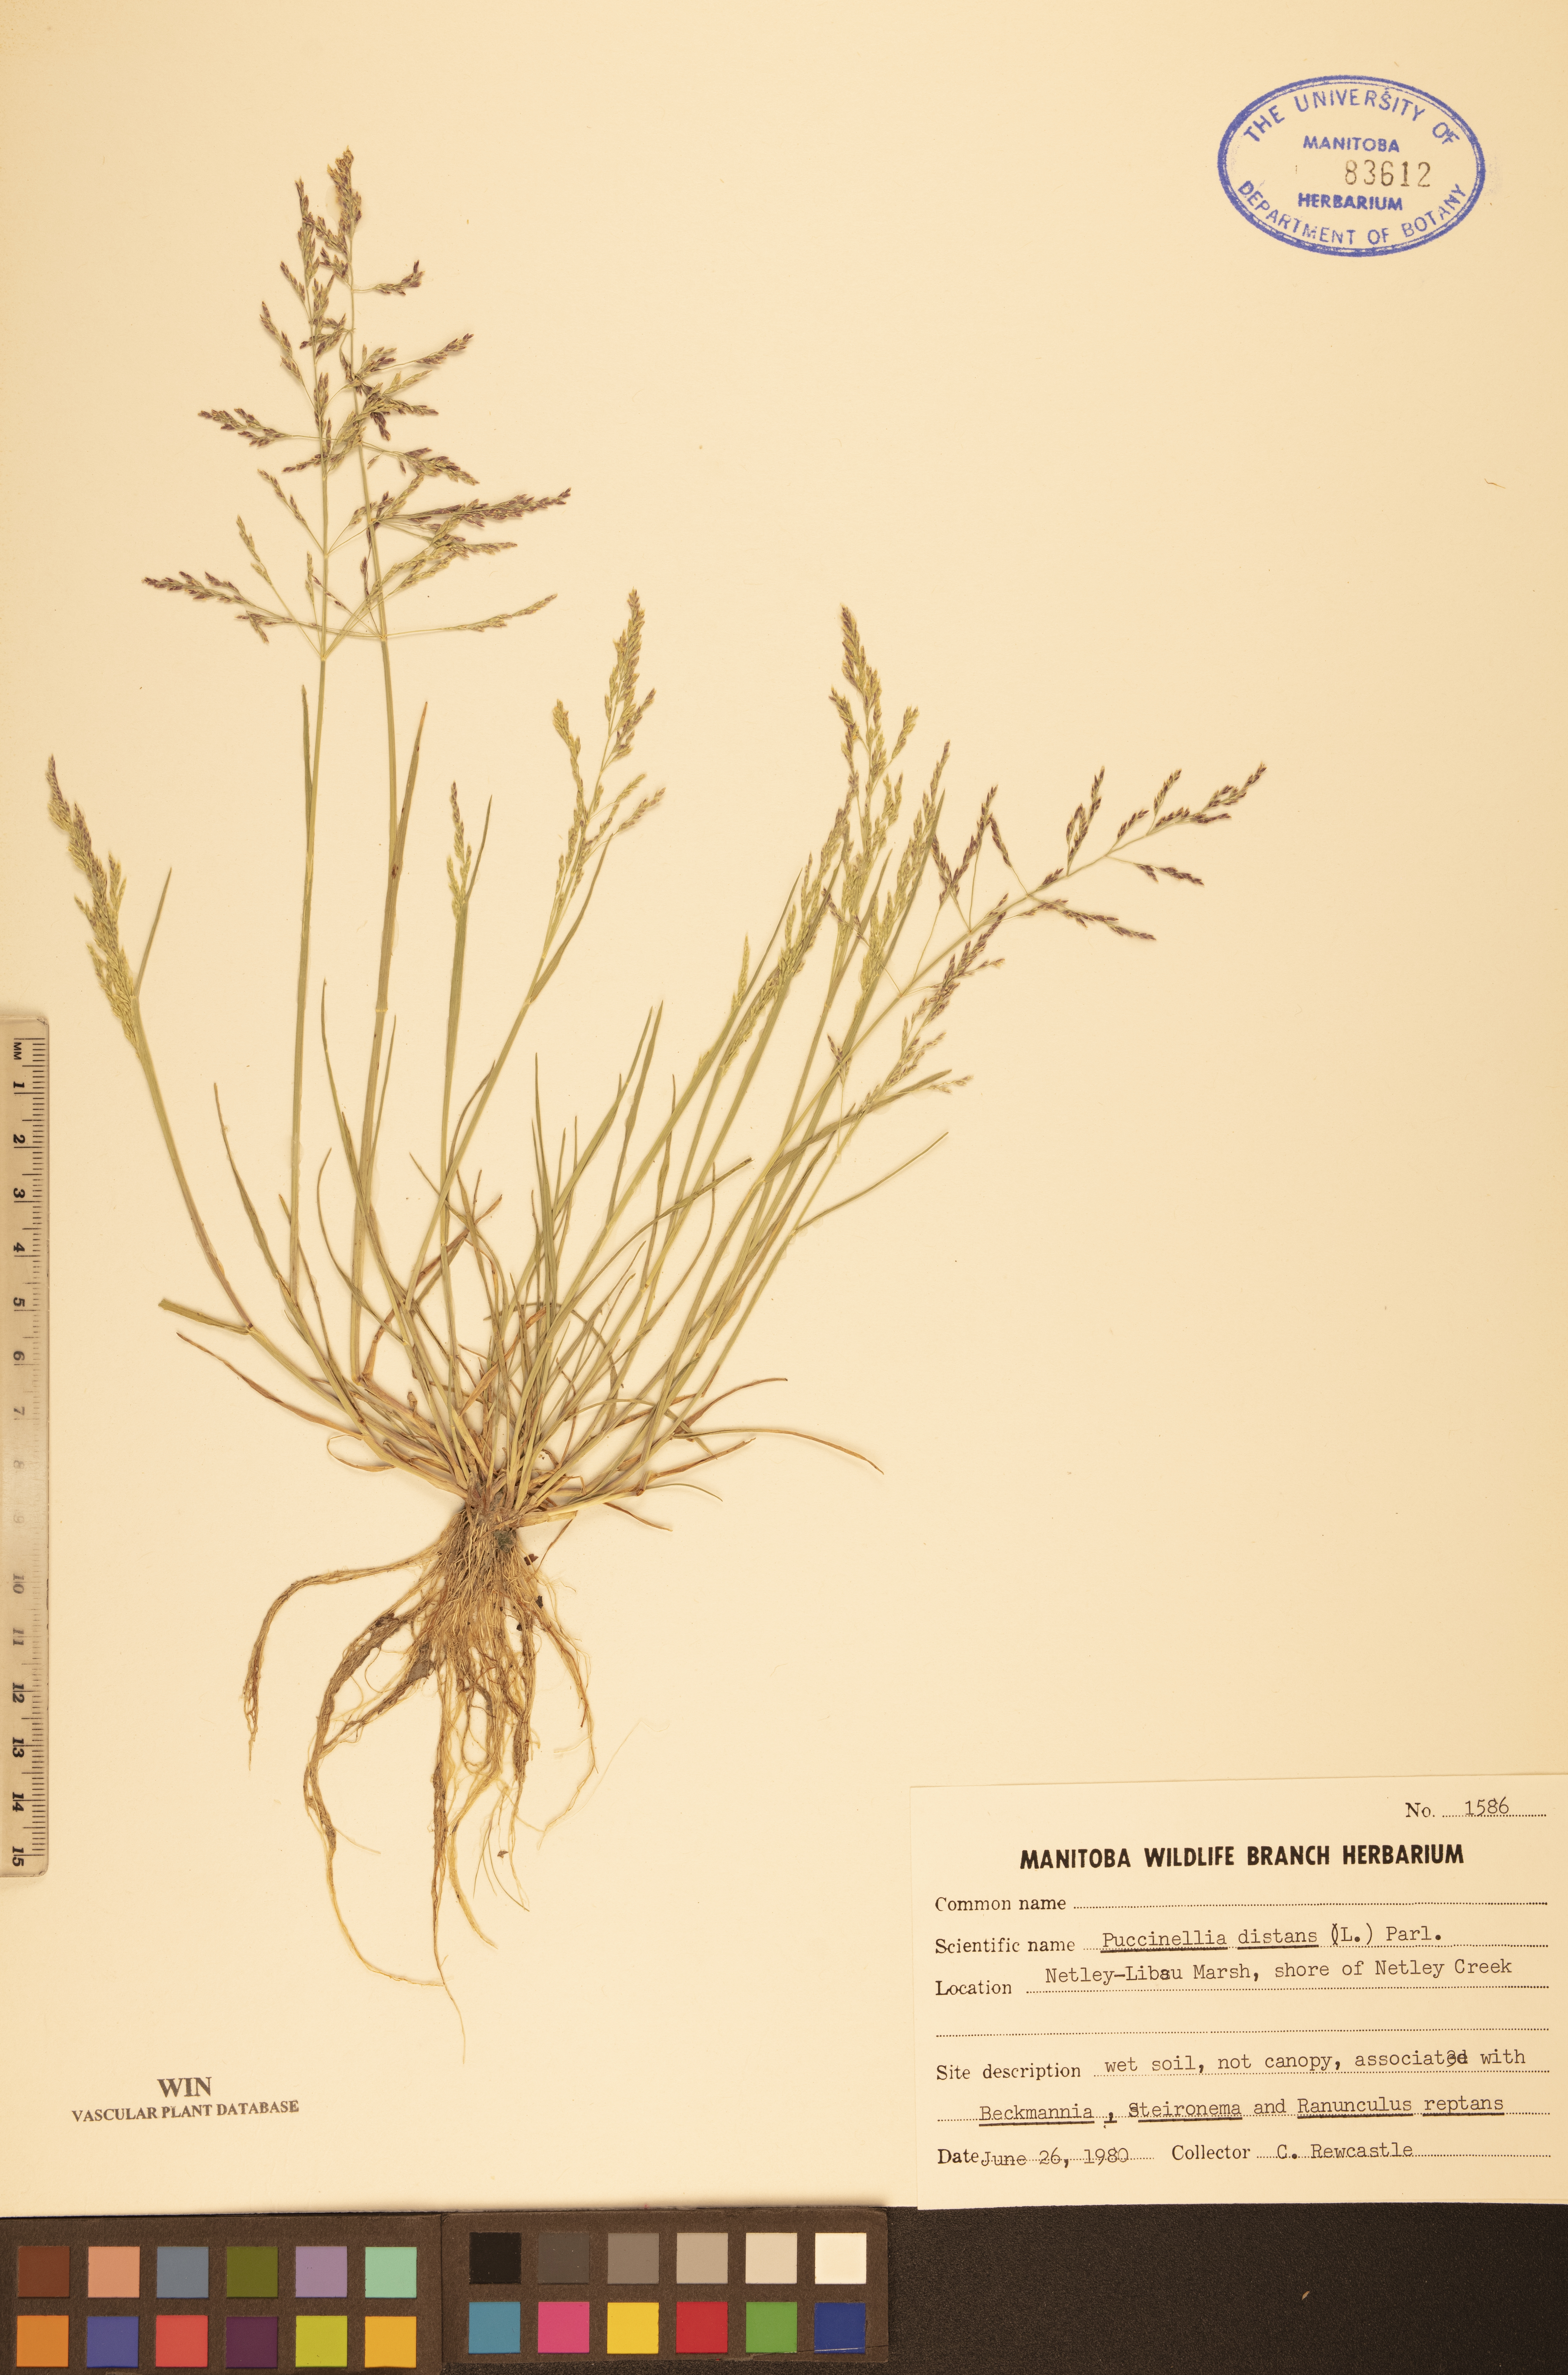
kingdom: Plantae
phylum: Tracheophyta
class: Liliopsida
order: Poales
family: Poaceae
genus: Puccinellia
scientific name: Puccinellia distans
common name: Weeping alkaligrass
